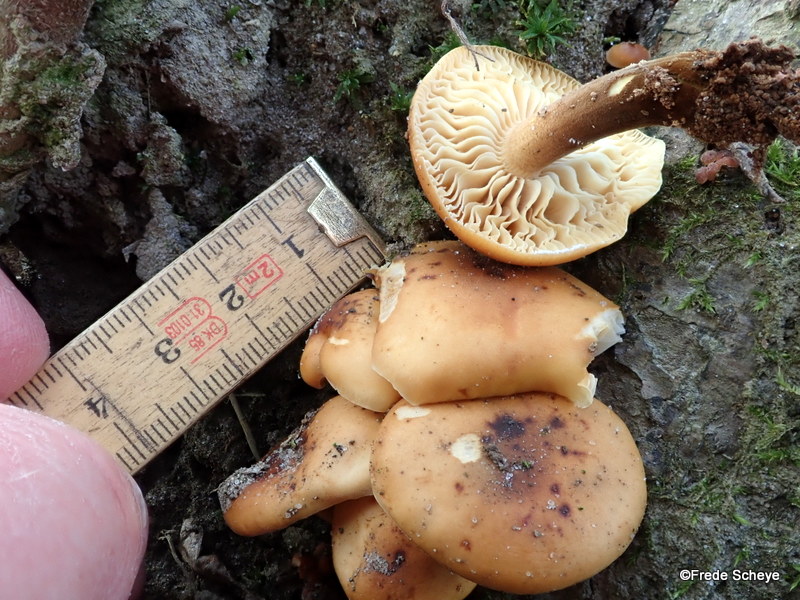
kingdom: Fungi
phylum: Basidiomycota
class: Agaricomycetes
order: Agaricales
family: Physalacriaceae
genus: Flammulina
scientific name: Flammulina velutipes
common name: gul fløjlsfod
